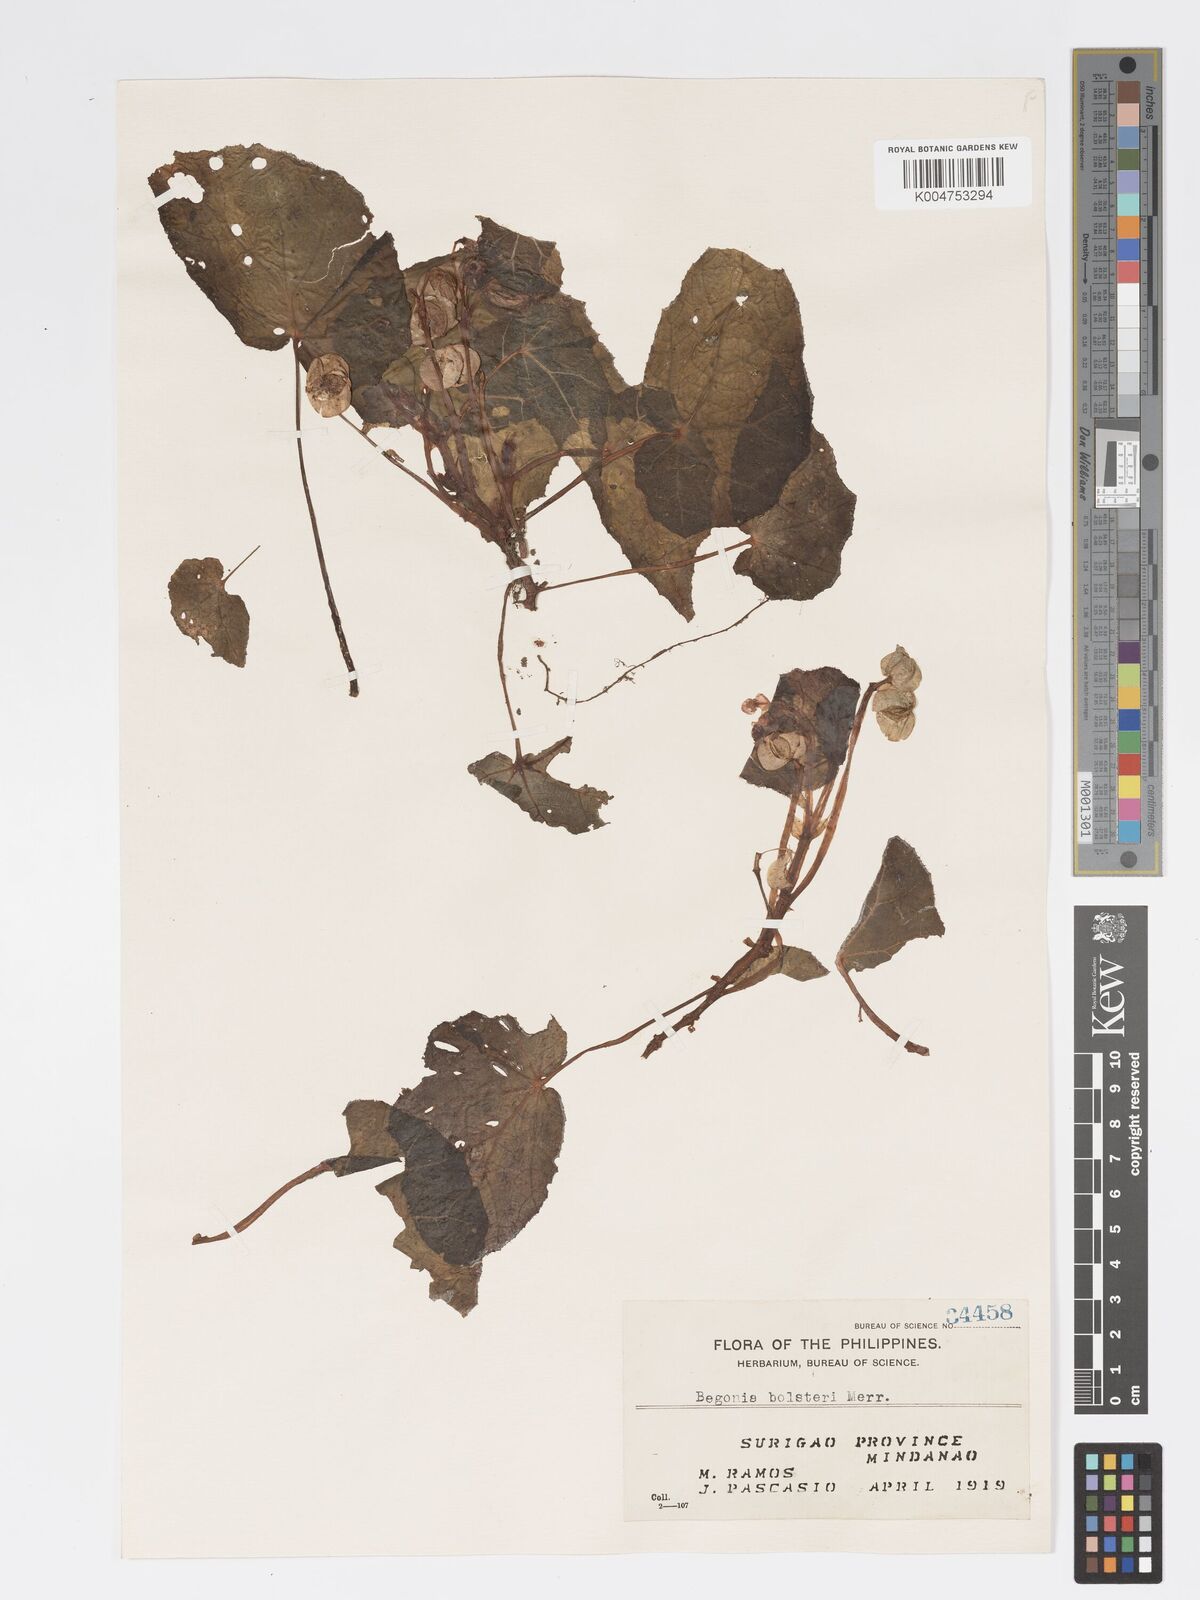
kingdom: Plantae
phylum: Tracheophyta
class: Magnoliopsida
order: Cucurbitales
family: Begoniaceae
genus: Begonia
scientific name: Begonia colorata
